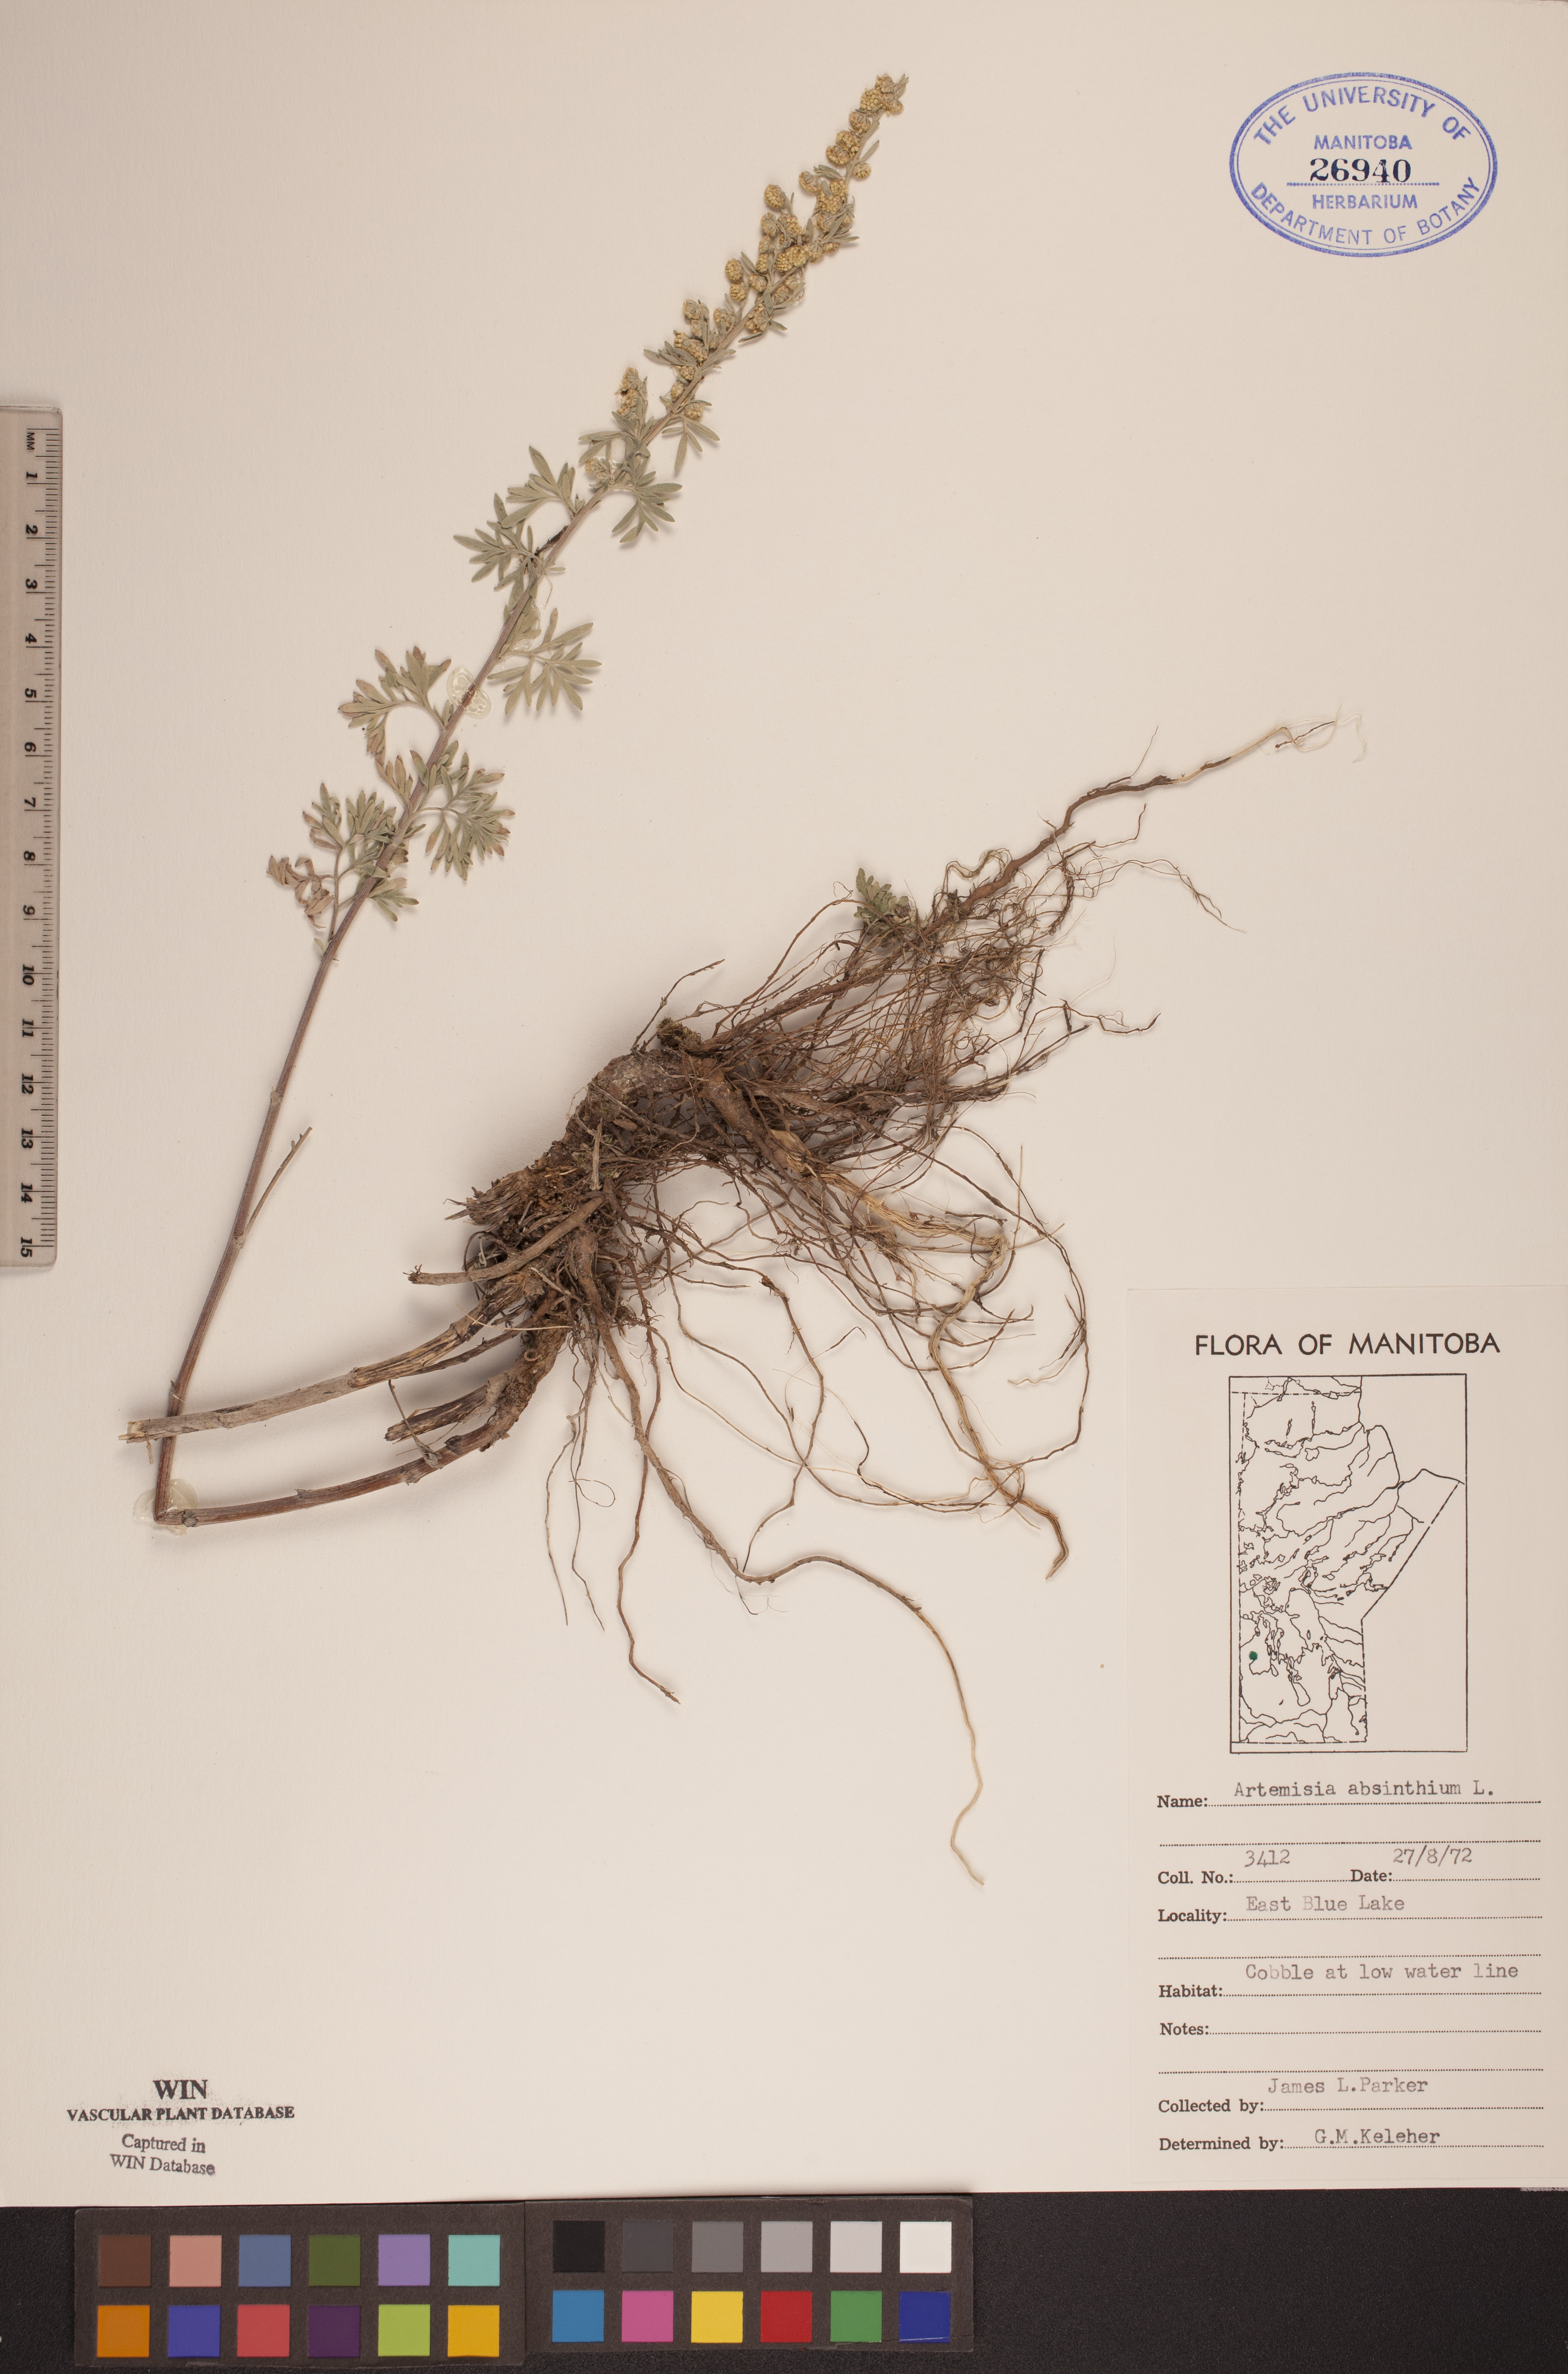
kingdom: Plantae
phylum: Tracheophyta
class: Magnoliopsida
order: Asterales
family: Asteraceae
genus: Artemisia
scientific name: Artemisia absinthium
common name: Wormwood
